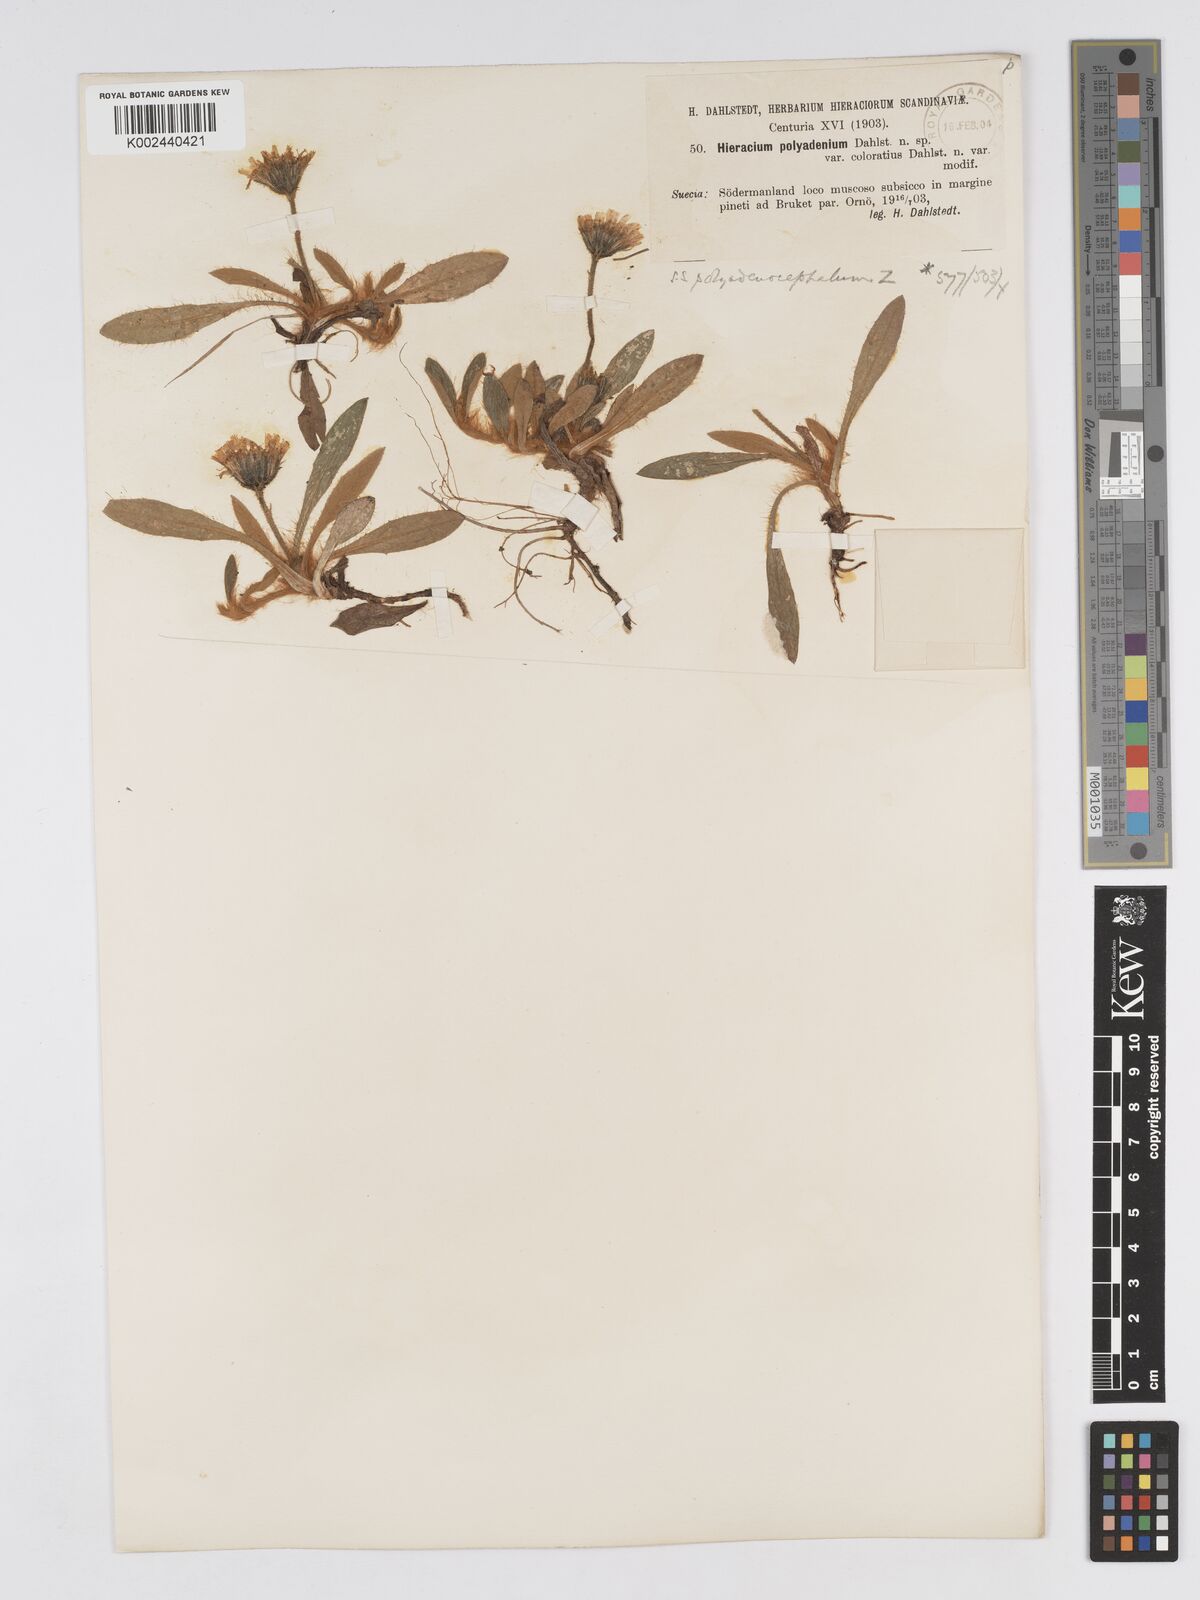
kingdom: Plantae
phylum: Tracheophyta
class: Magnoliopsida
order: Asterales
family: Asteraceae
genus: Hieracium
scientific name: Hieracium
